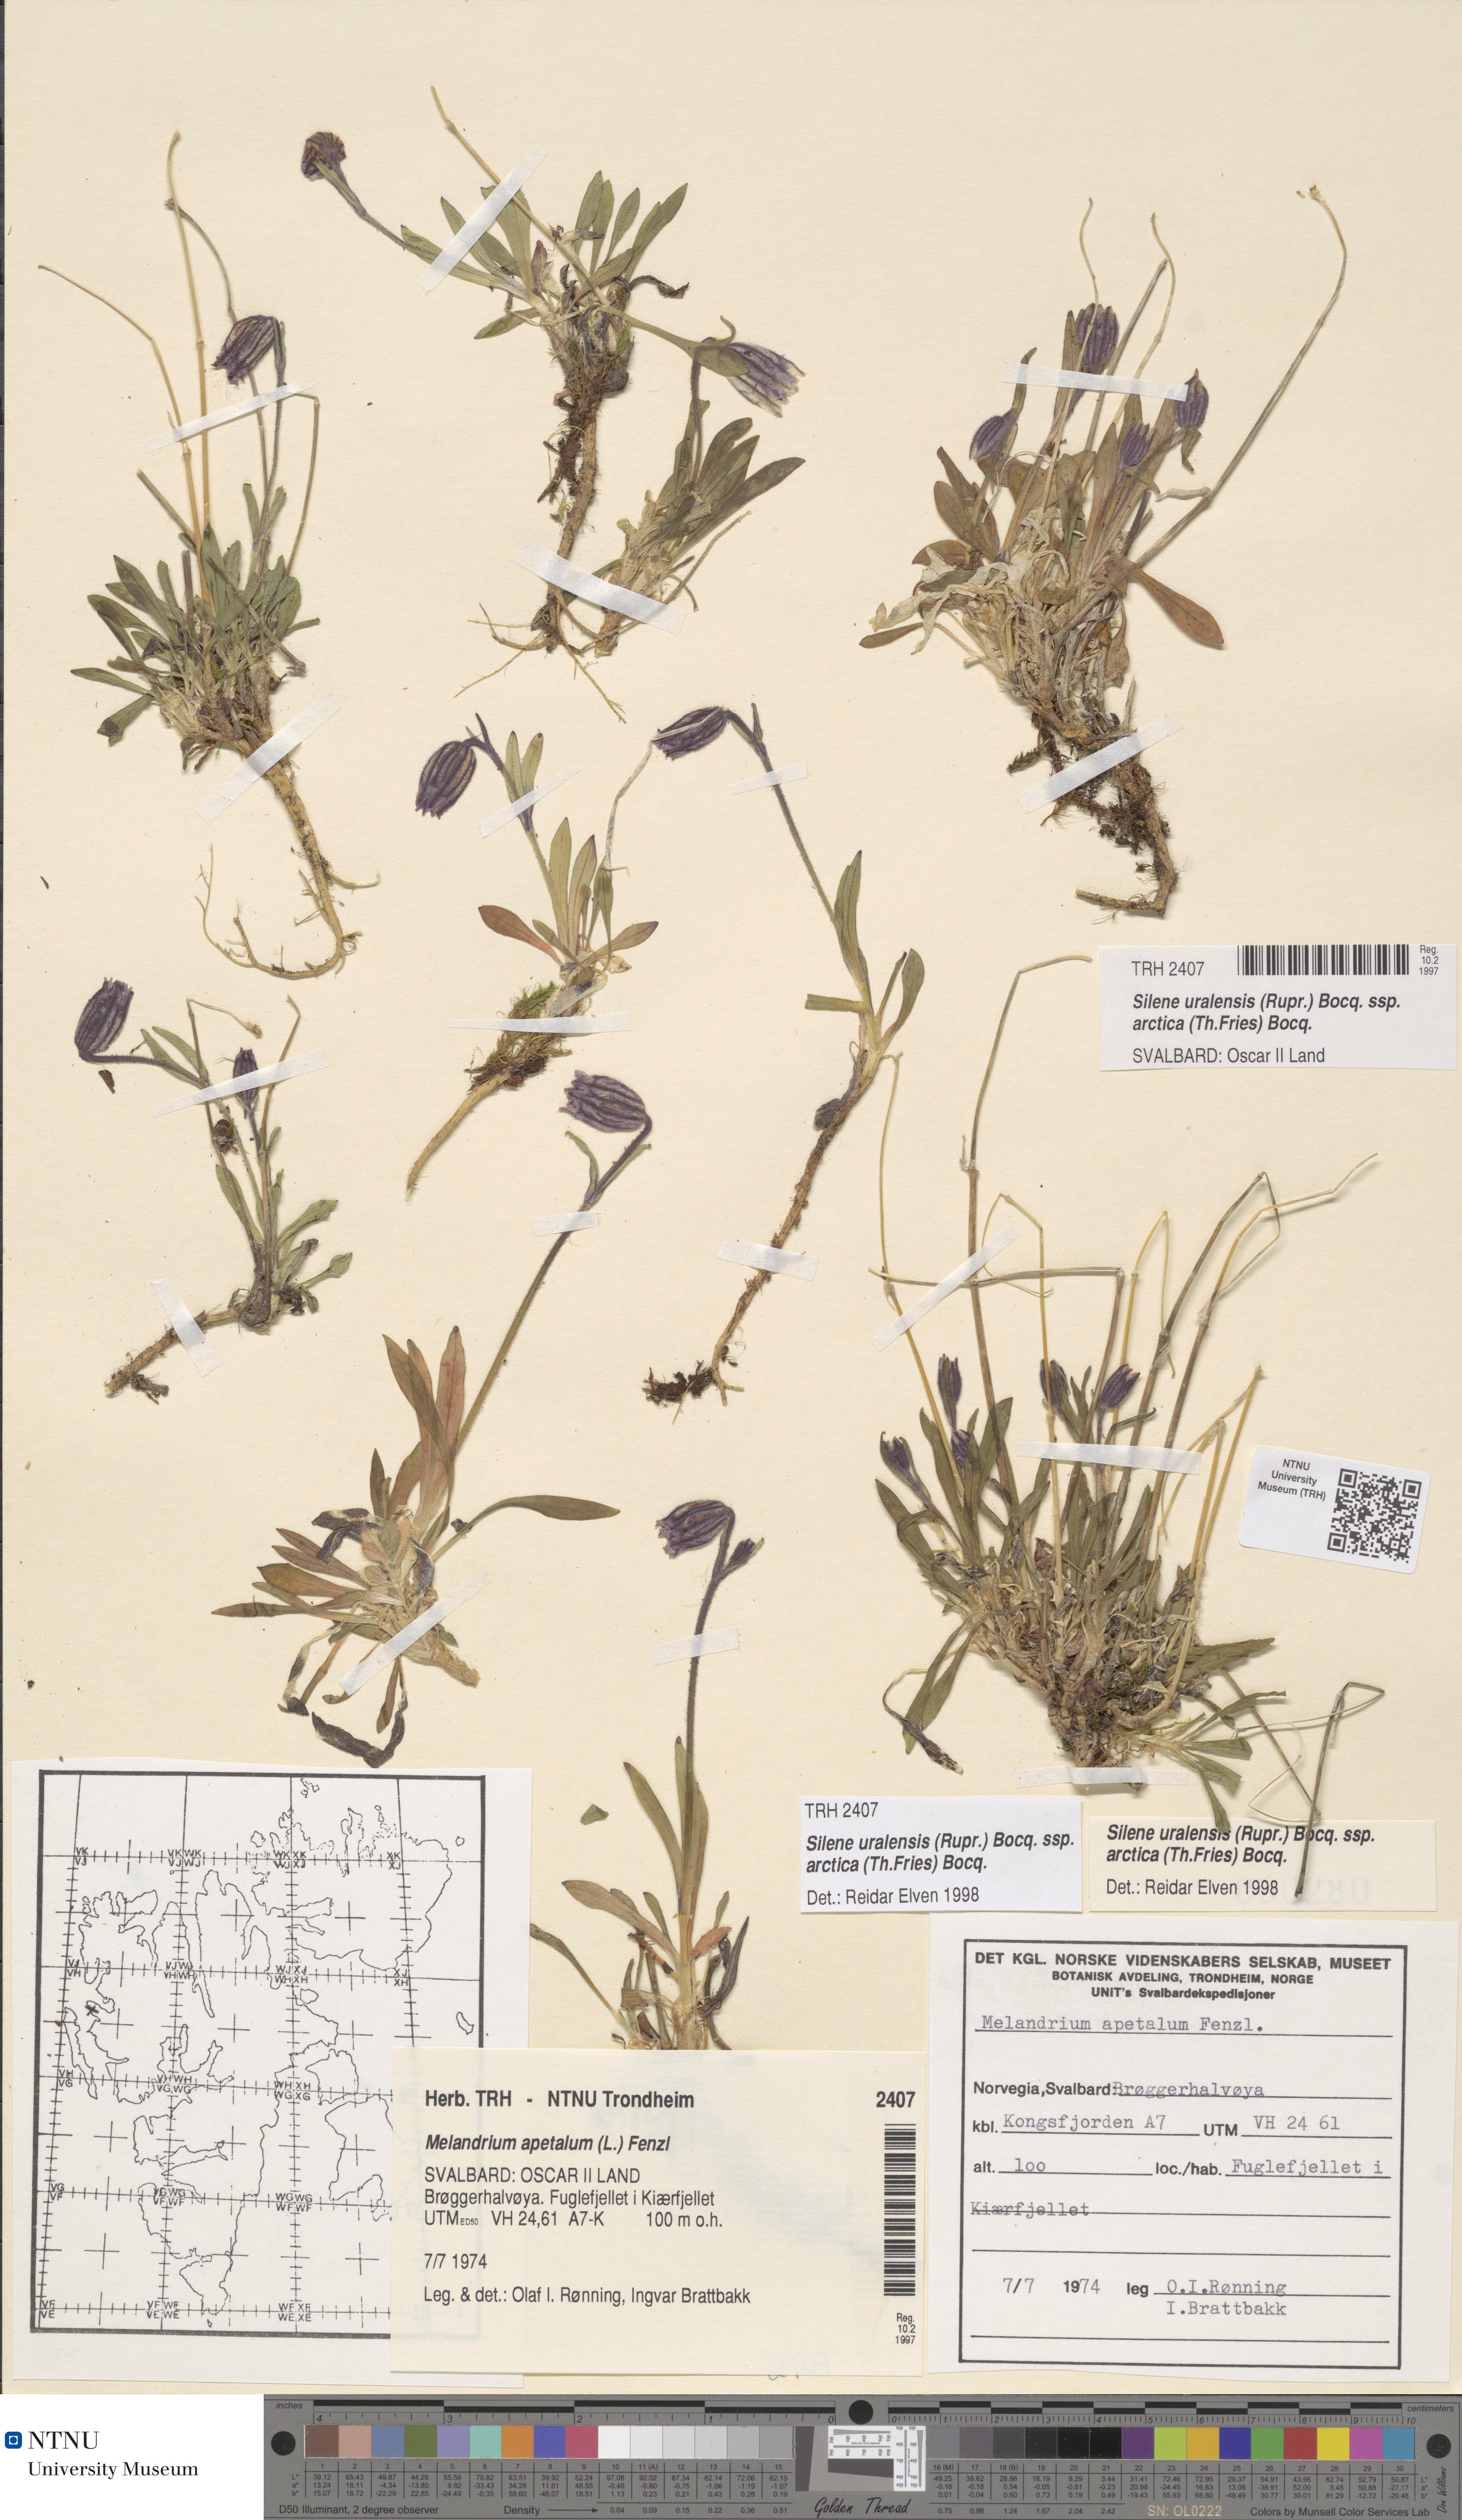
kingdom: Plantae
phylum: Tracheophyta
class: Magnoliopsida
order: Caryophyllales
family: Caryophyllaceae
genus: Silene
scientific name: Silene uralensis
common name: Nodding campion
